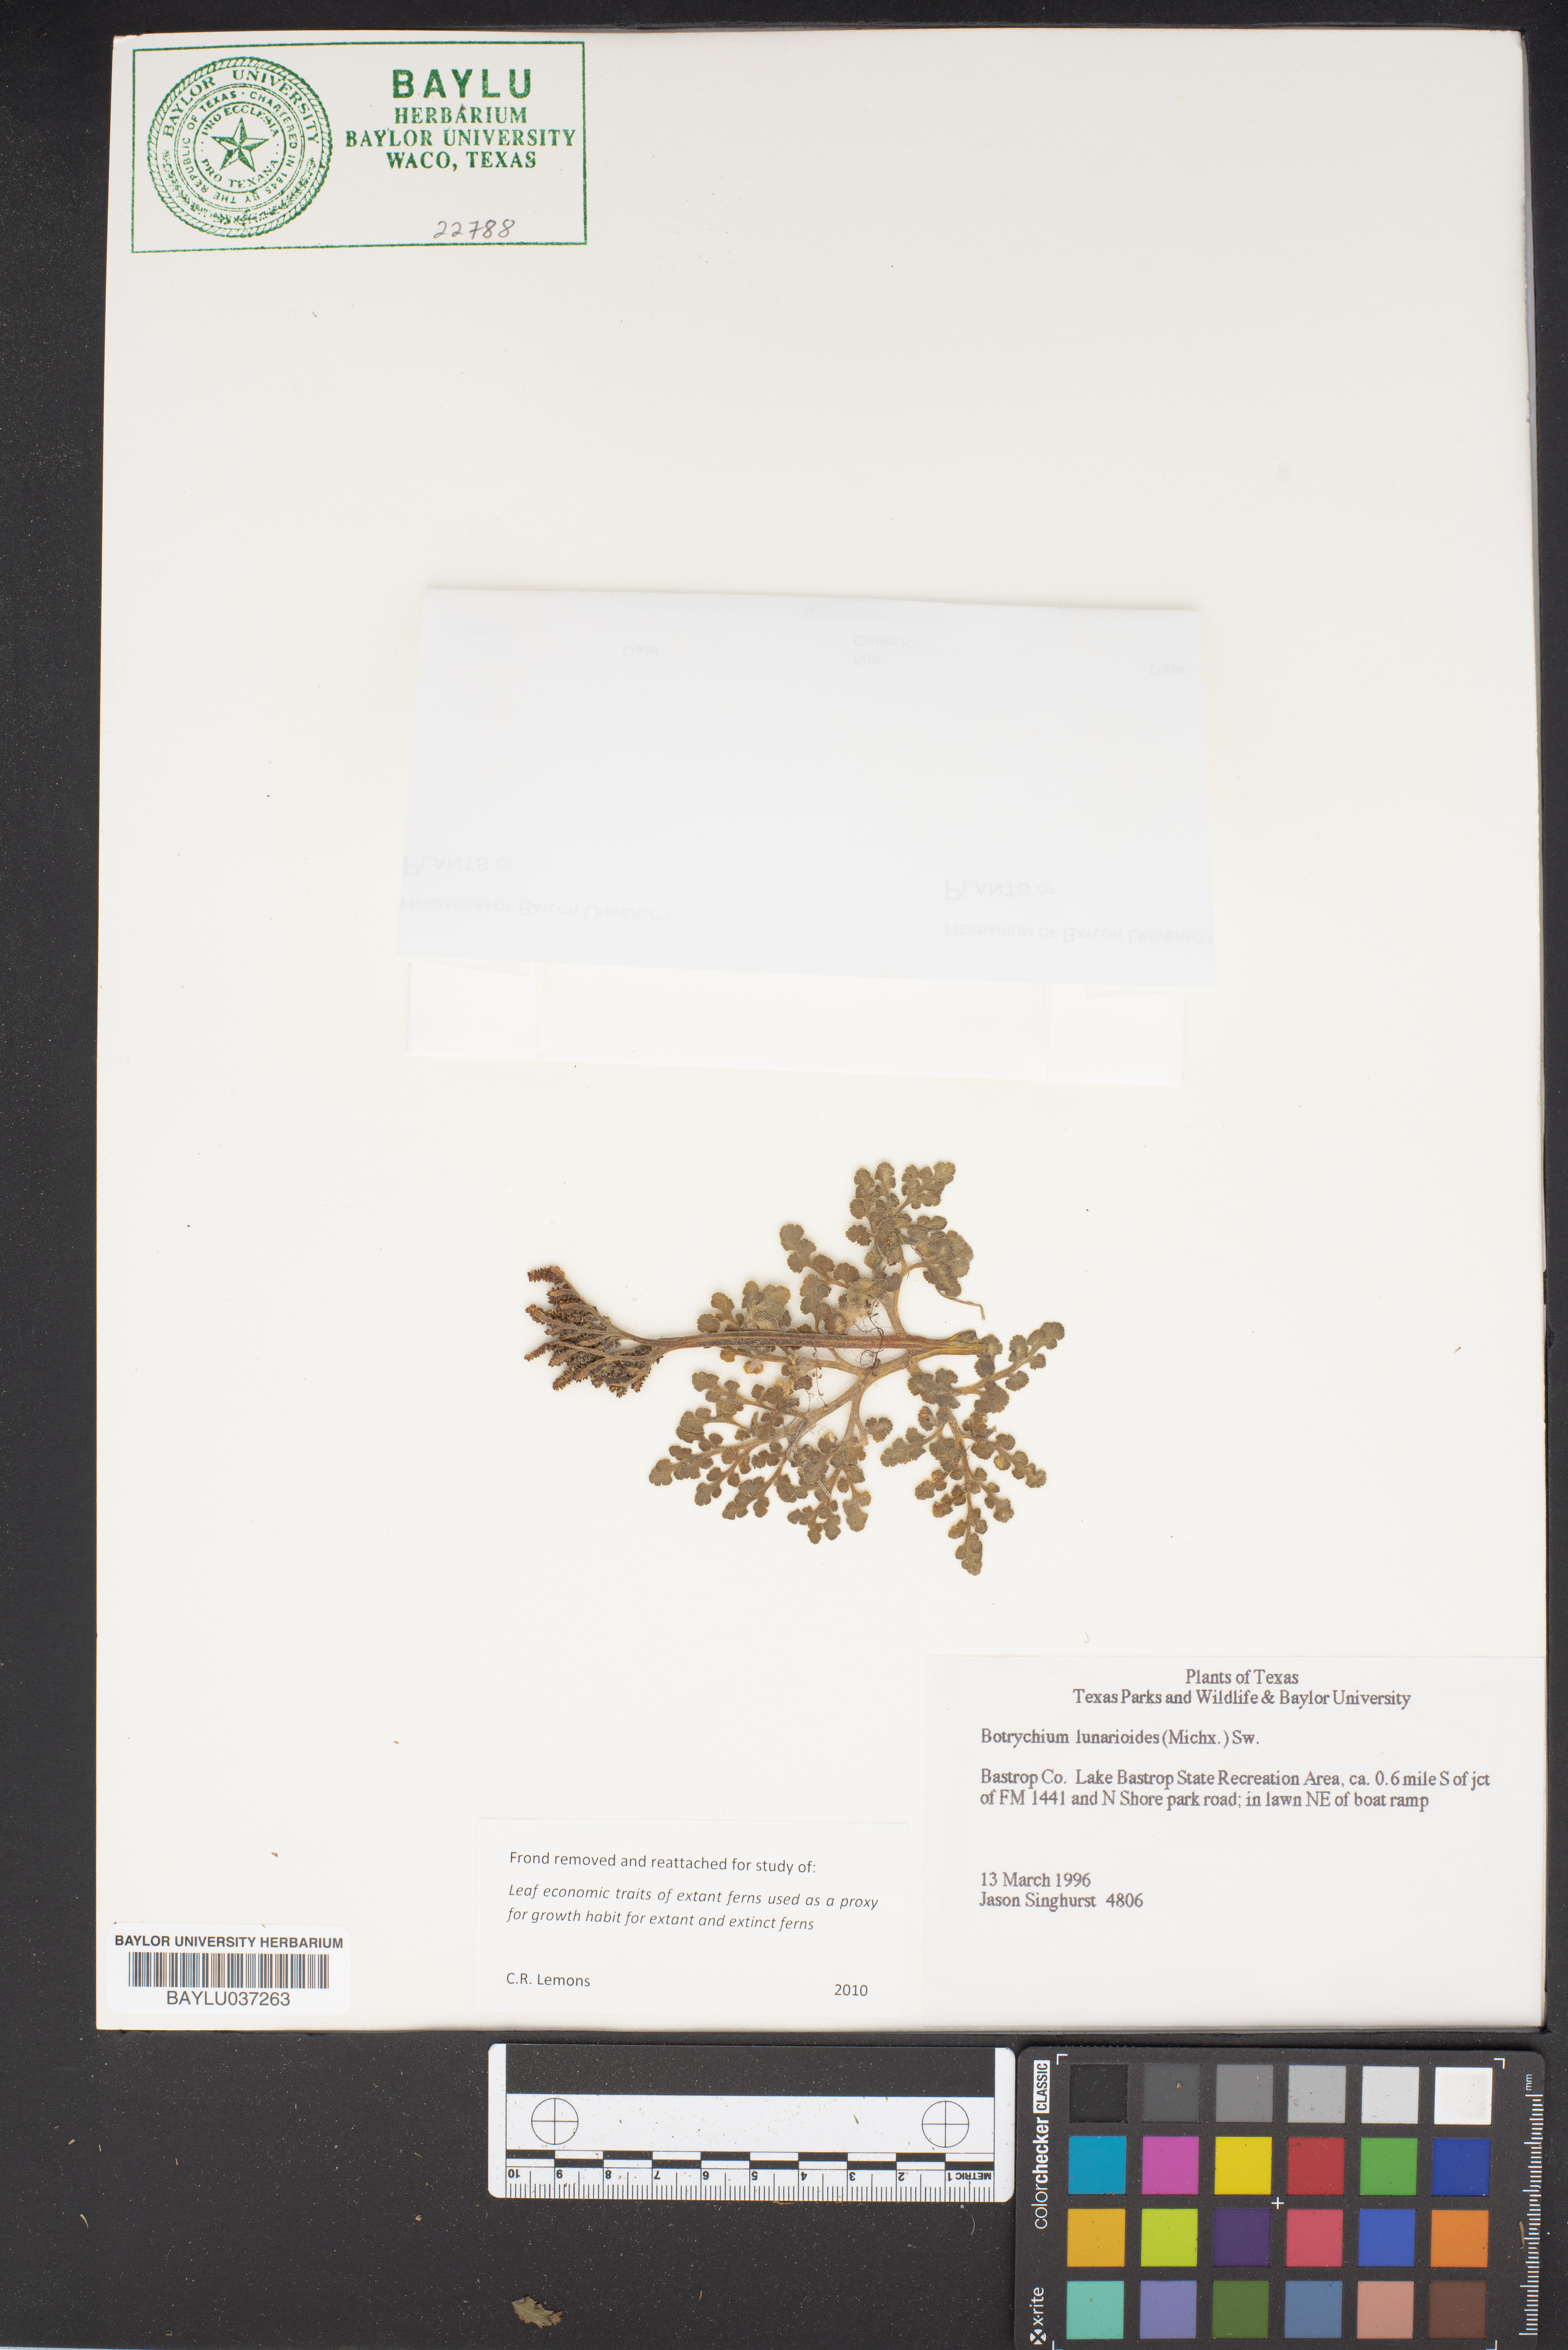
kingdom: Plantae
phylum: Tracheophyta
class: Polypodiopsida
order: Ophioglossales
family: Ophioglossaceae
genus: Sceptridium
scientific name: Sceptridium lunarioides
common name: Prostrate grapefern
